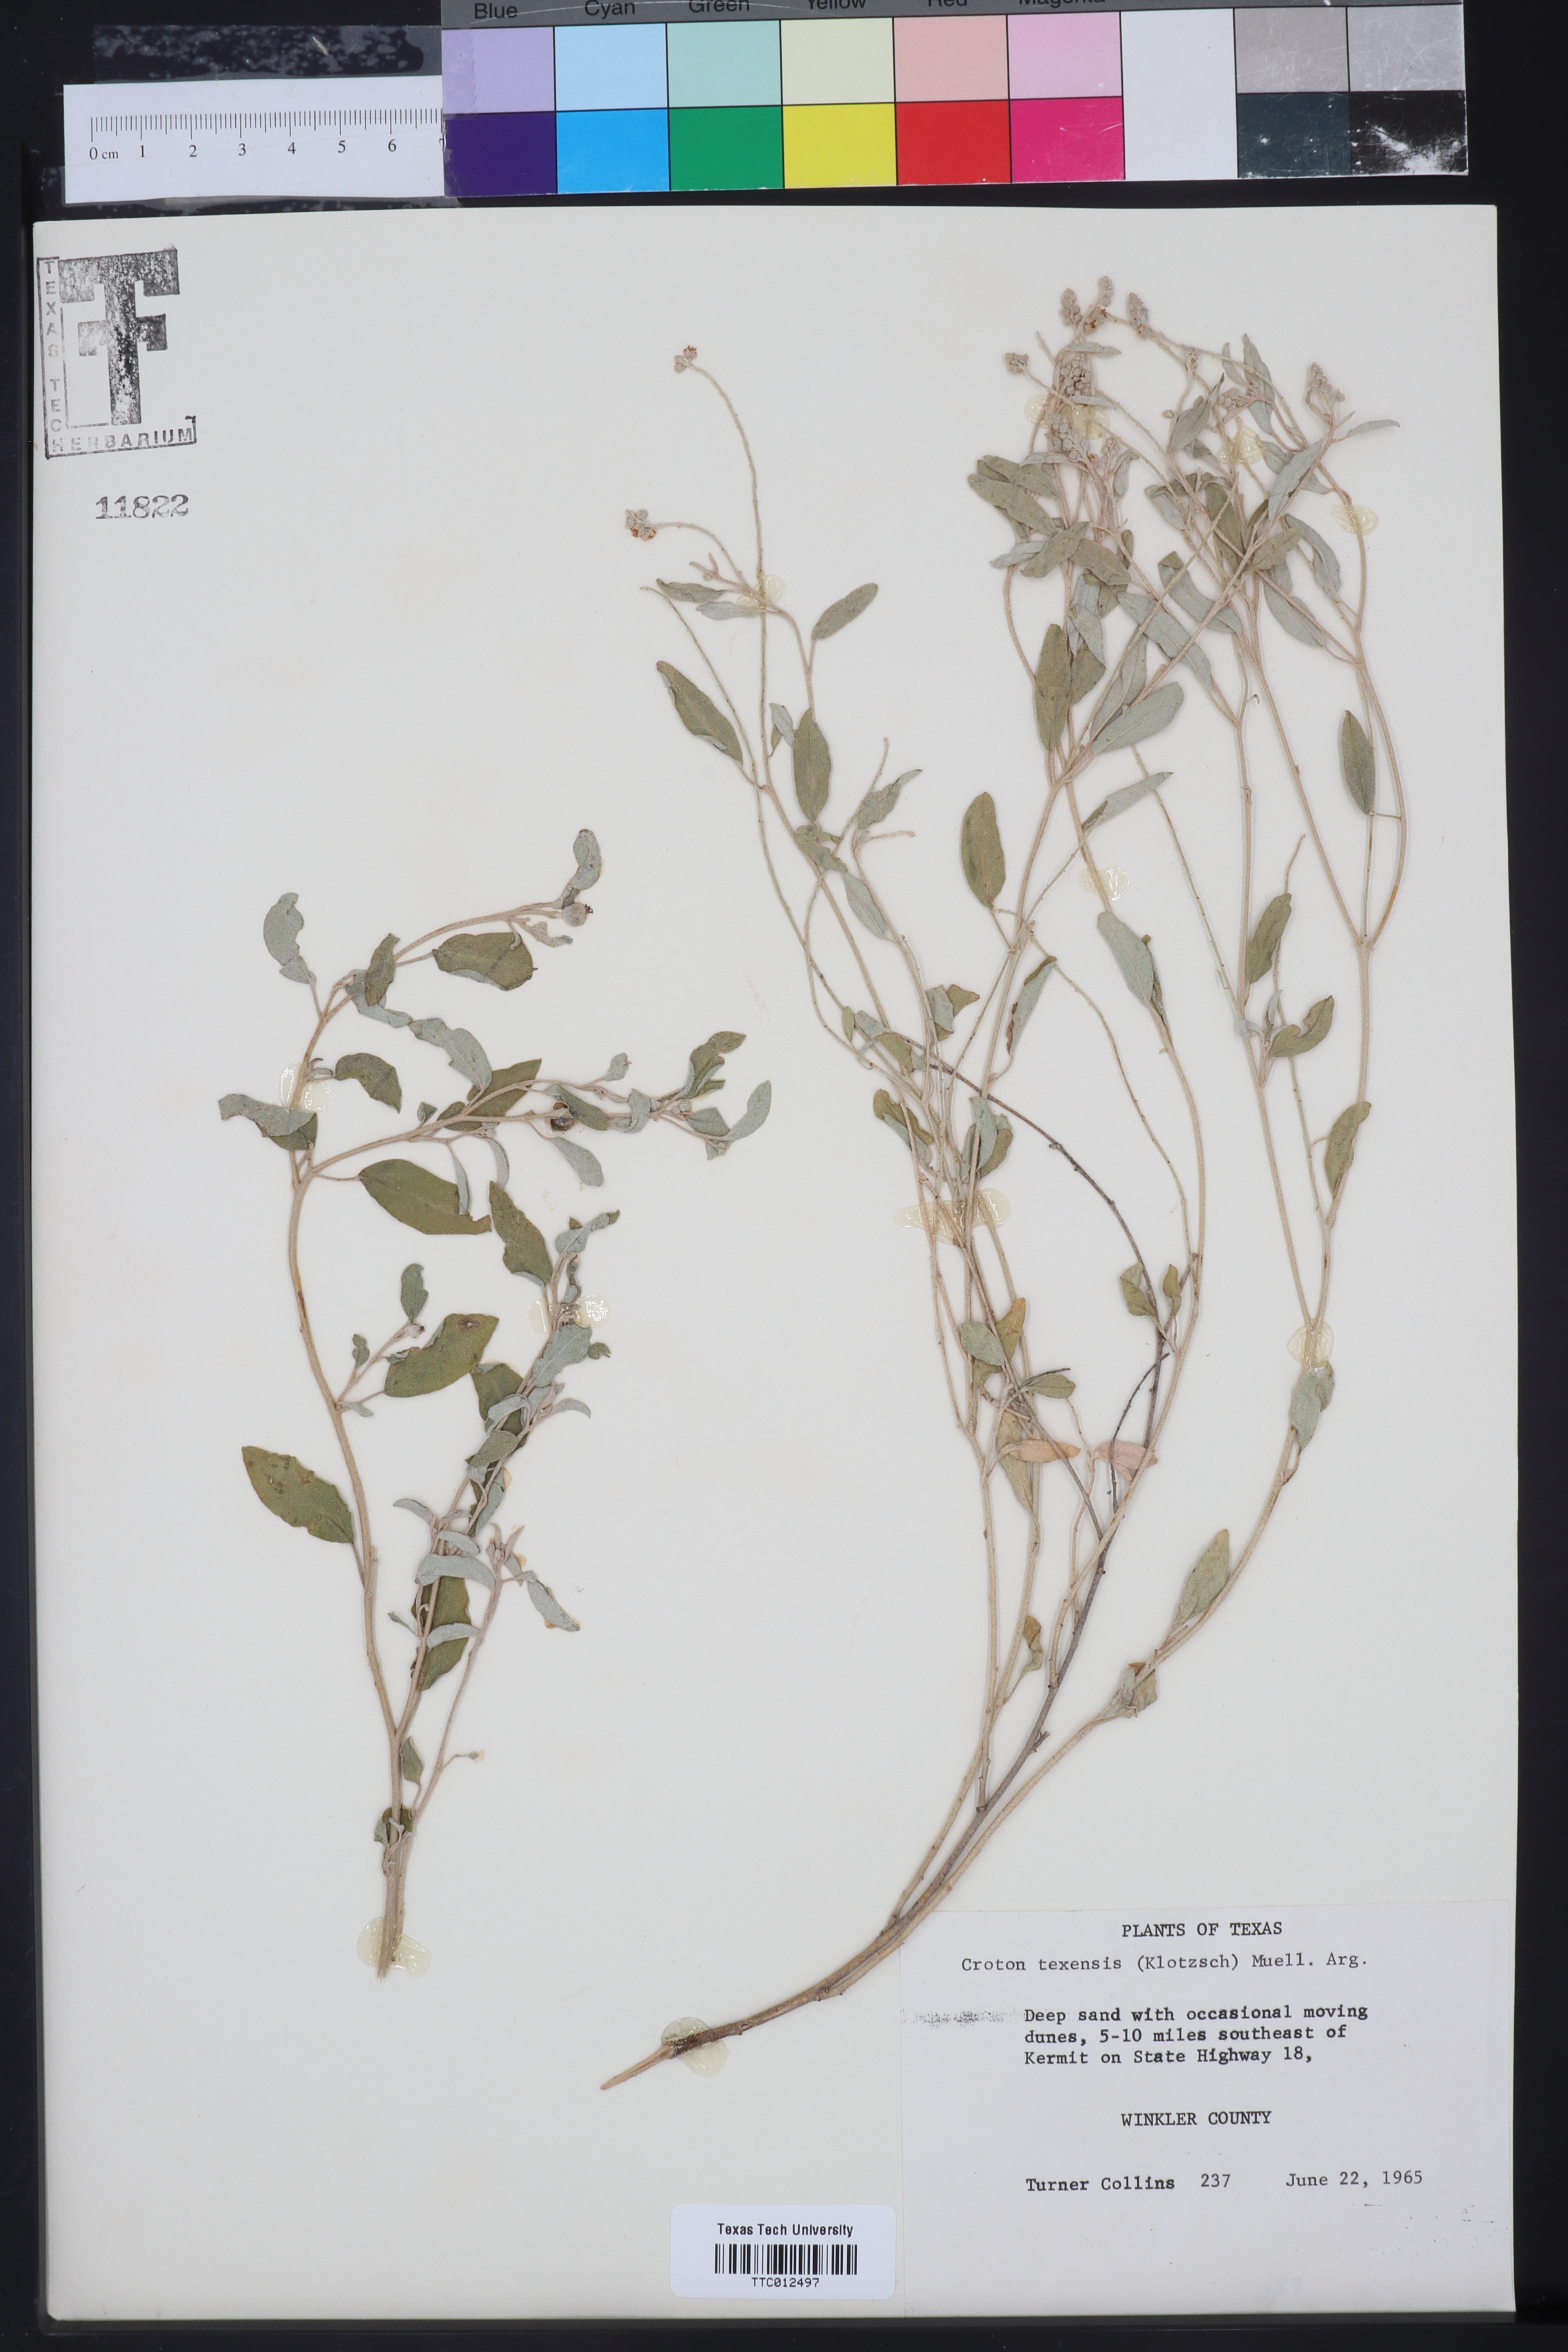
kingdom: Plantae
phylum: Tracheophyta
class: Magnoliopsida
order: Malpighiales
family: Euphorbiaceae
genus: Croton
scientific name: Croton texensis
